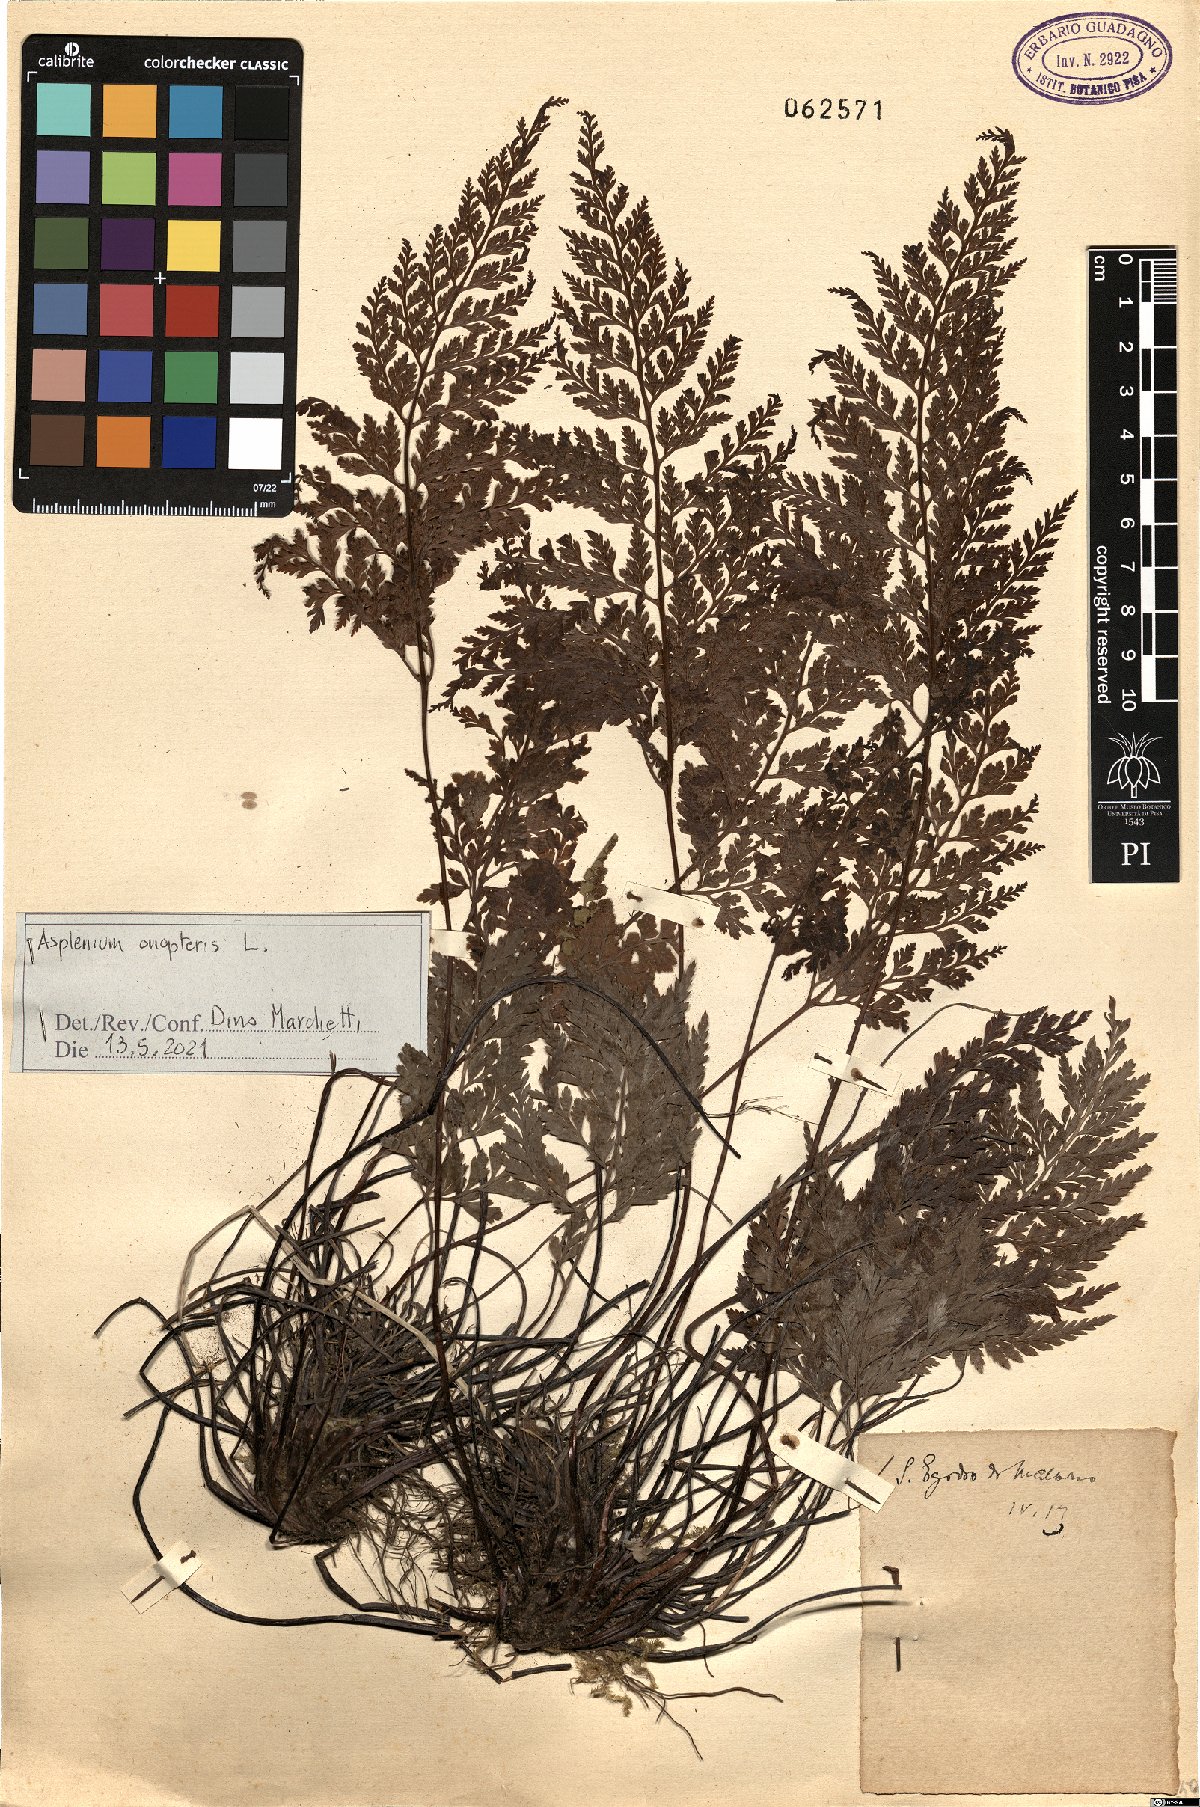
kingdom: Plantae
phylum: Tracheophyta
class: Polypodiopsida
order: Polypodiales
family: Aspleniaceae
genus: Asplenium
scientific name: Asplenium onopteris
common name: Irish spleenwort
